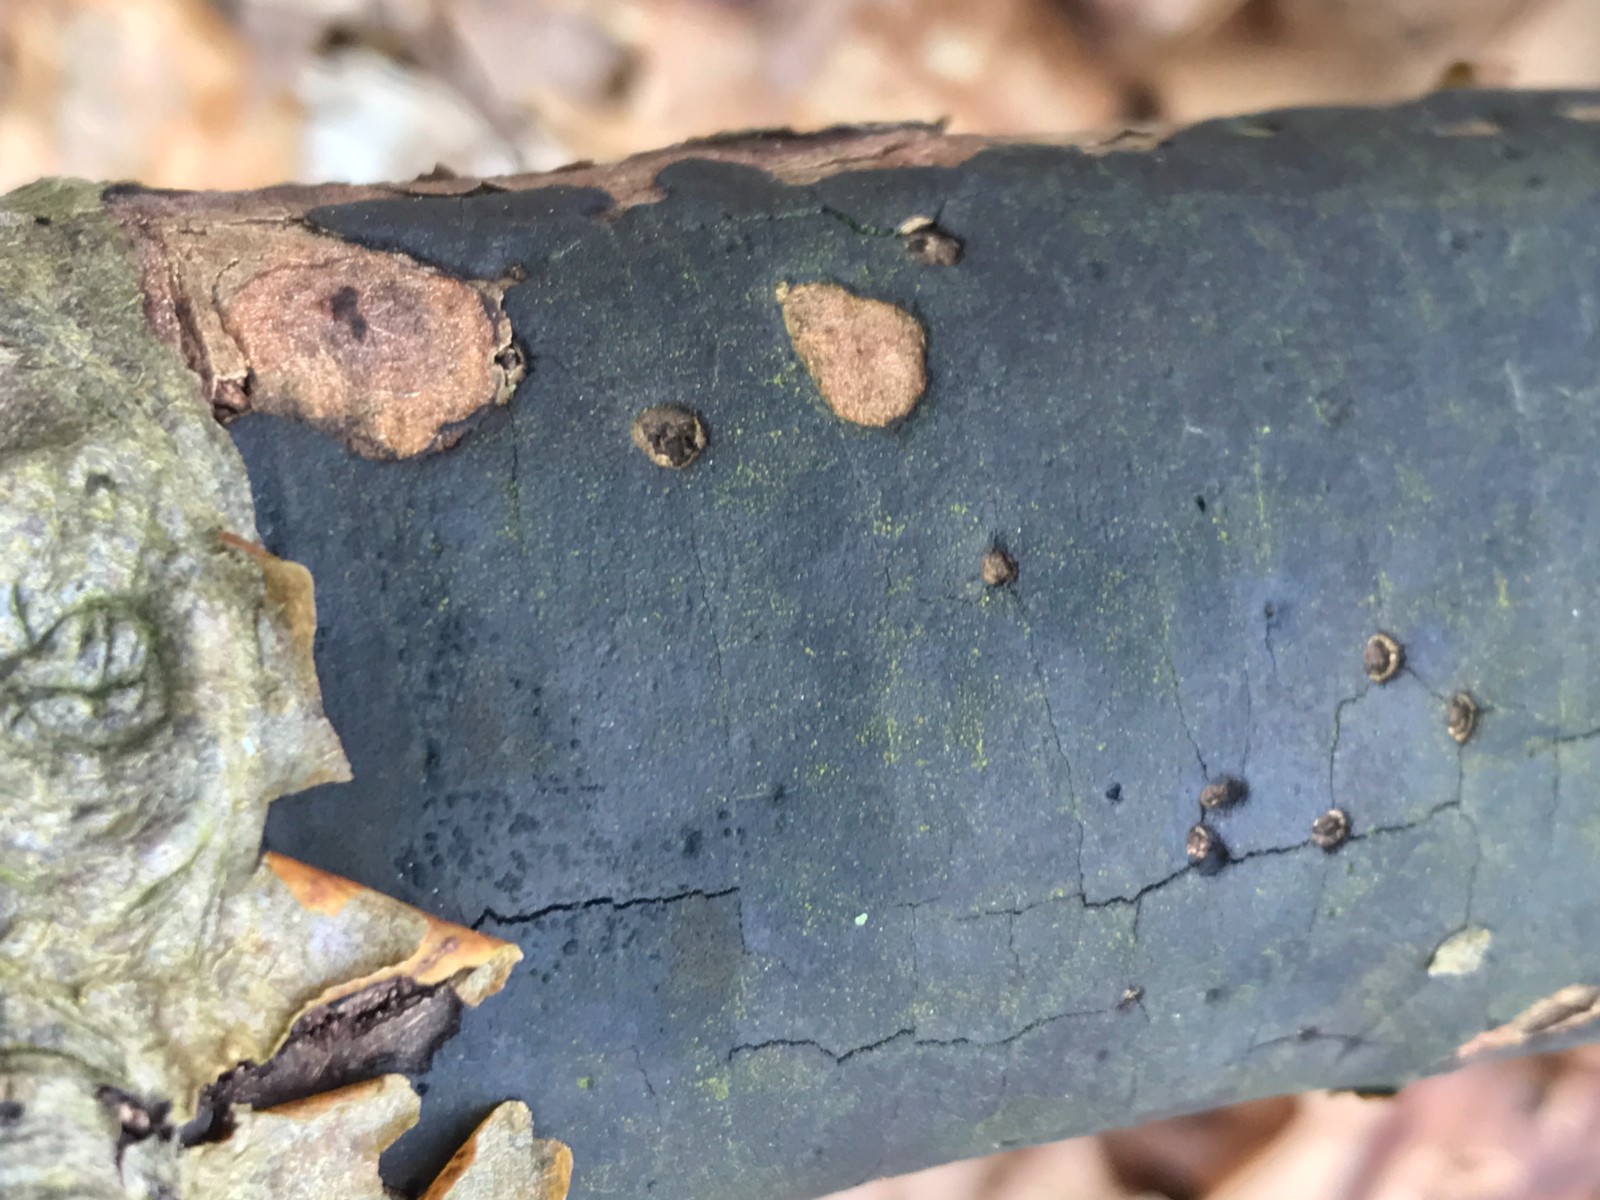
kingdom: Fungi
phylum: Ascomycota
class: Sordariomycetes
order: Xylariales
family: Diatrypaceae
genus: Diatrype
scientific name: Diatrype decorticata
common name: barksprænger-kulskorpe
